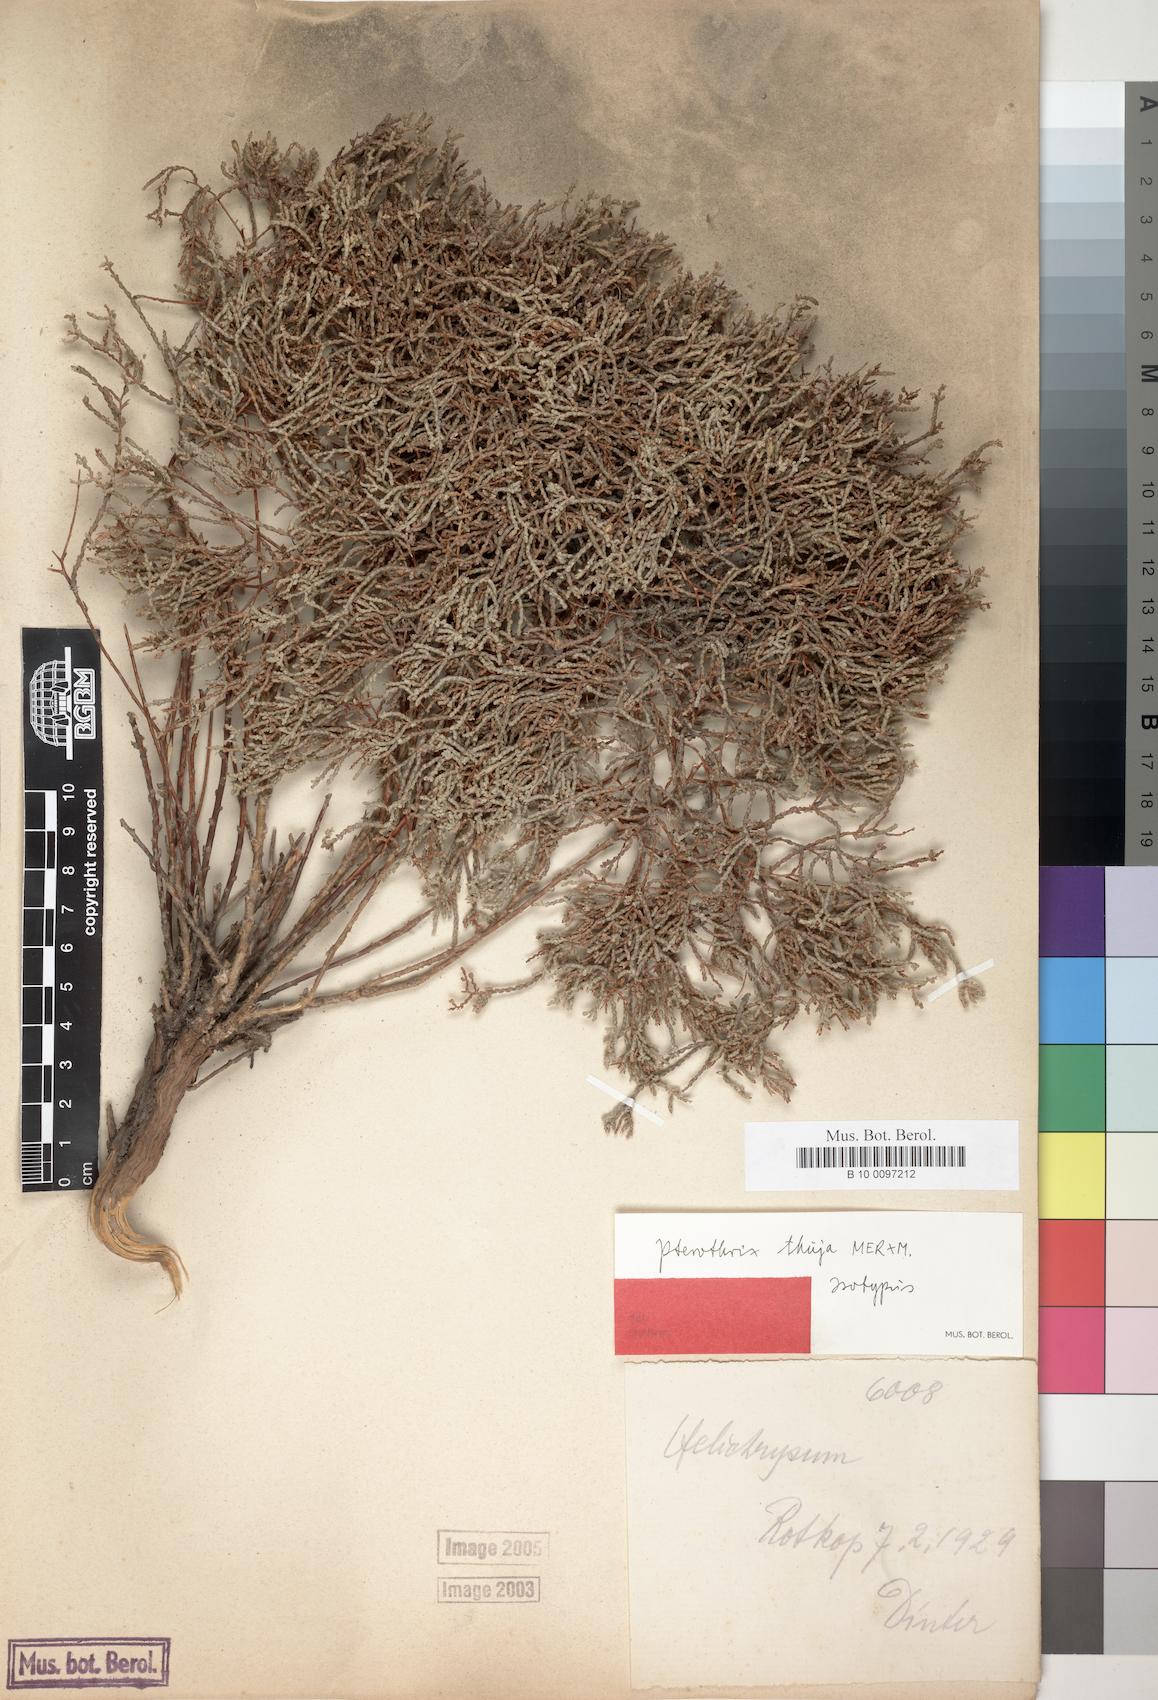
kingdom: Plantae
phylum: Tracheophyta
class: Magnoliopsida
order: Asterales
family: Asteraceae
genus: Amphiglossa
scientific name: Amphiglossa thuja
